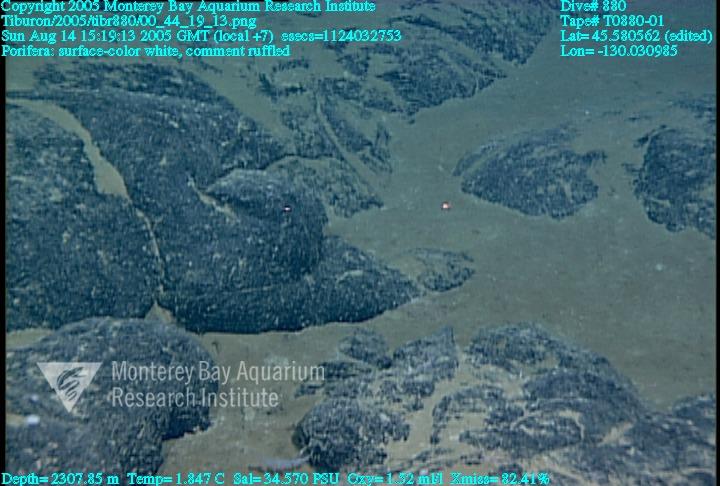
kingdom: Animalia
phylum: Porifera
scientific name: Porifera
